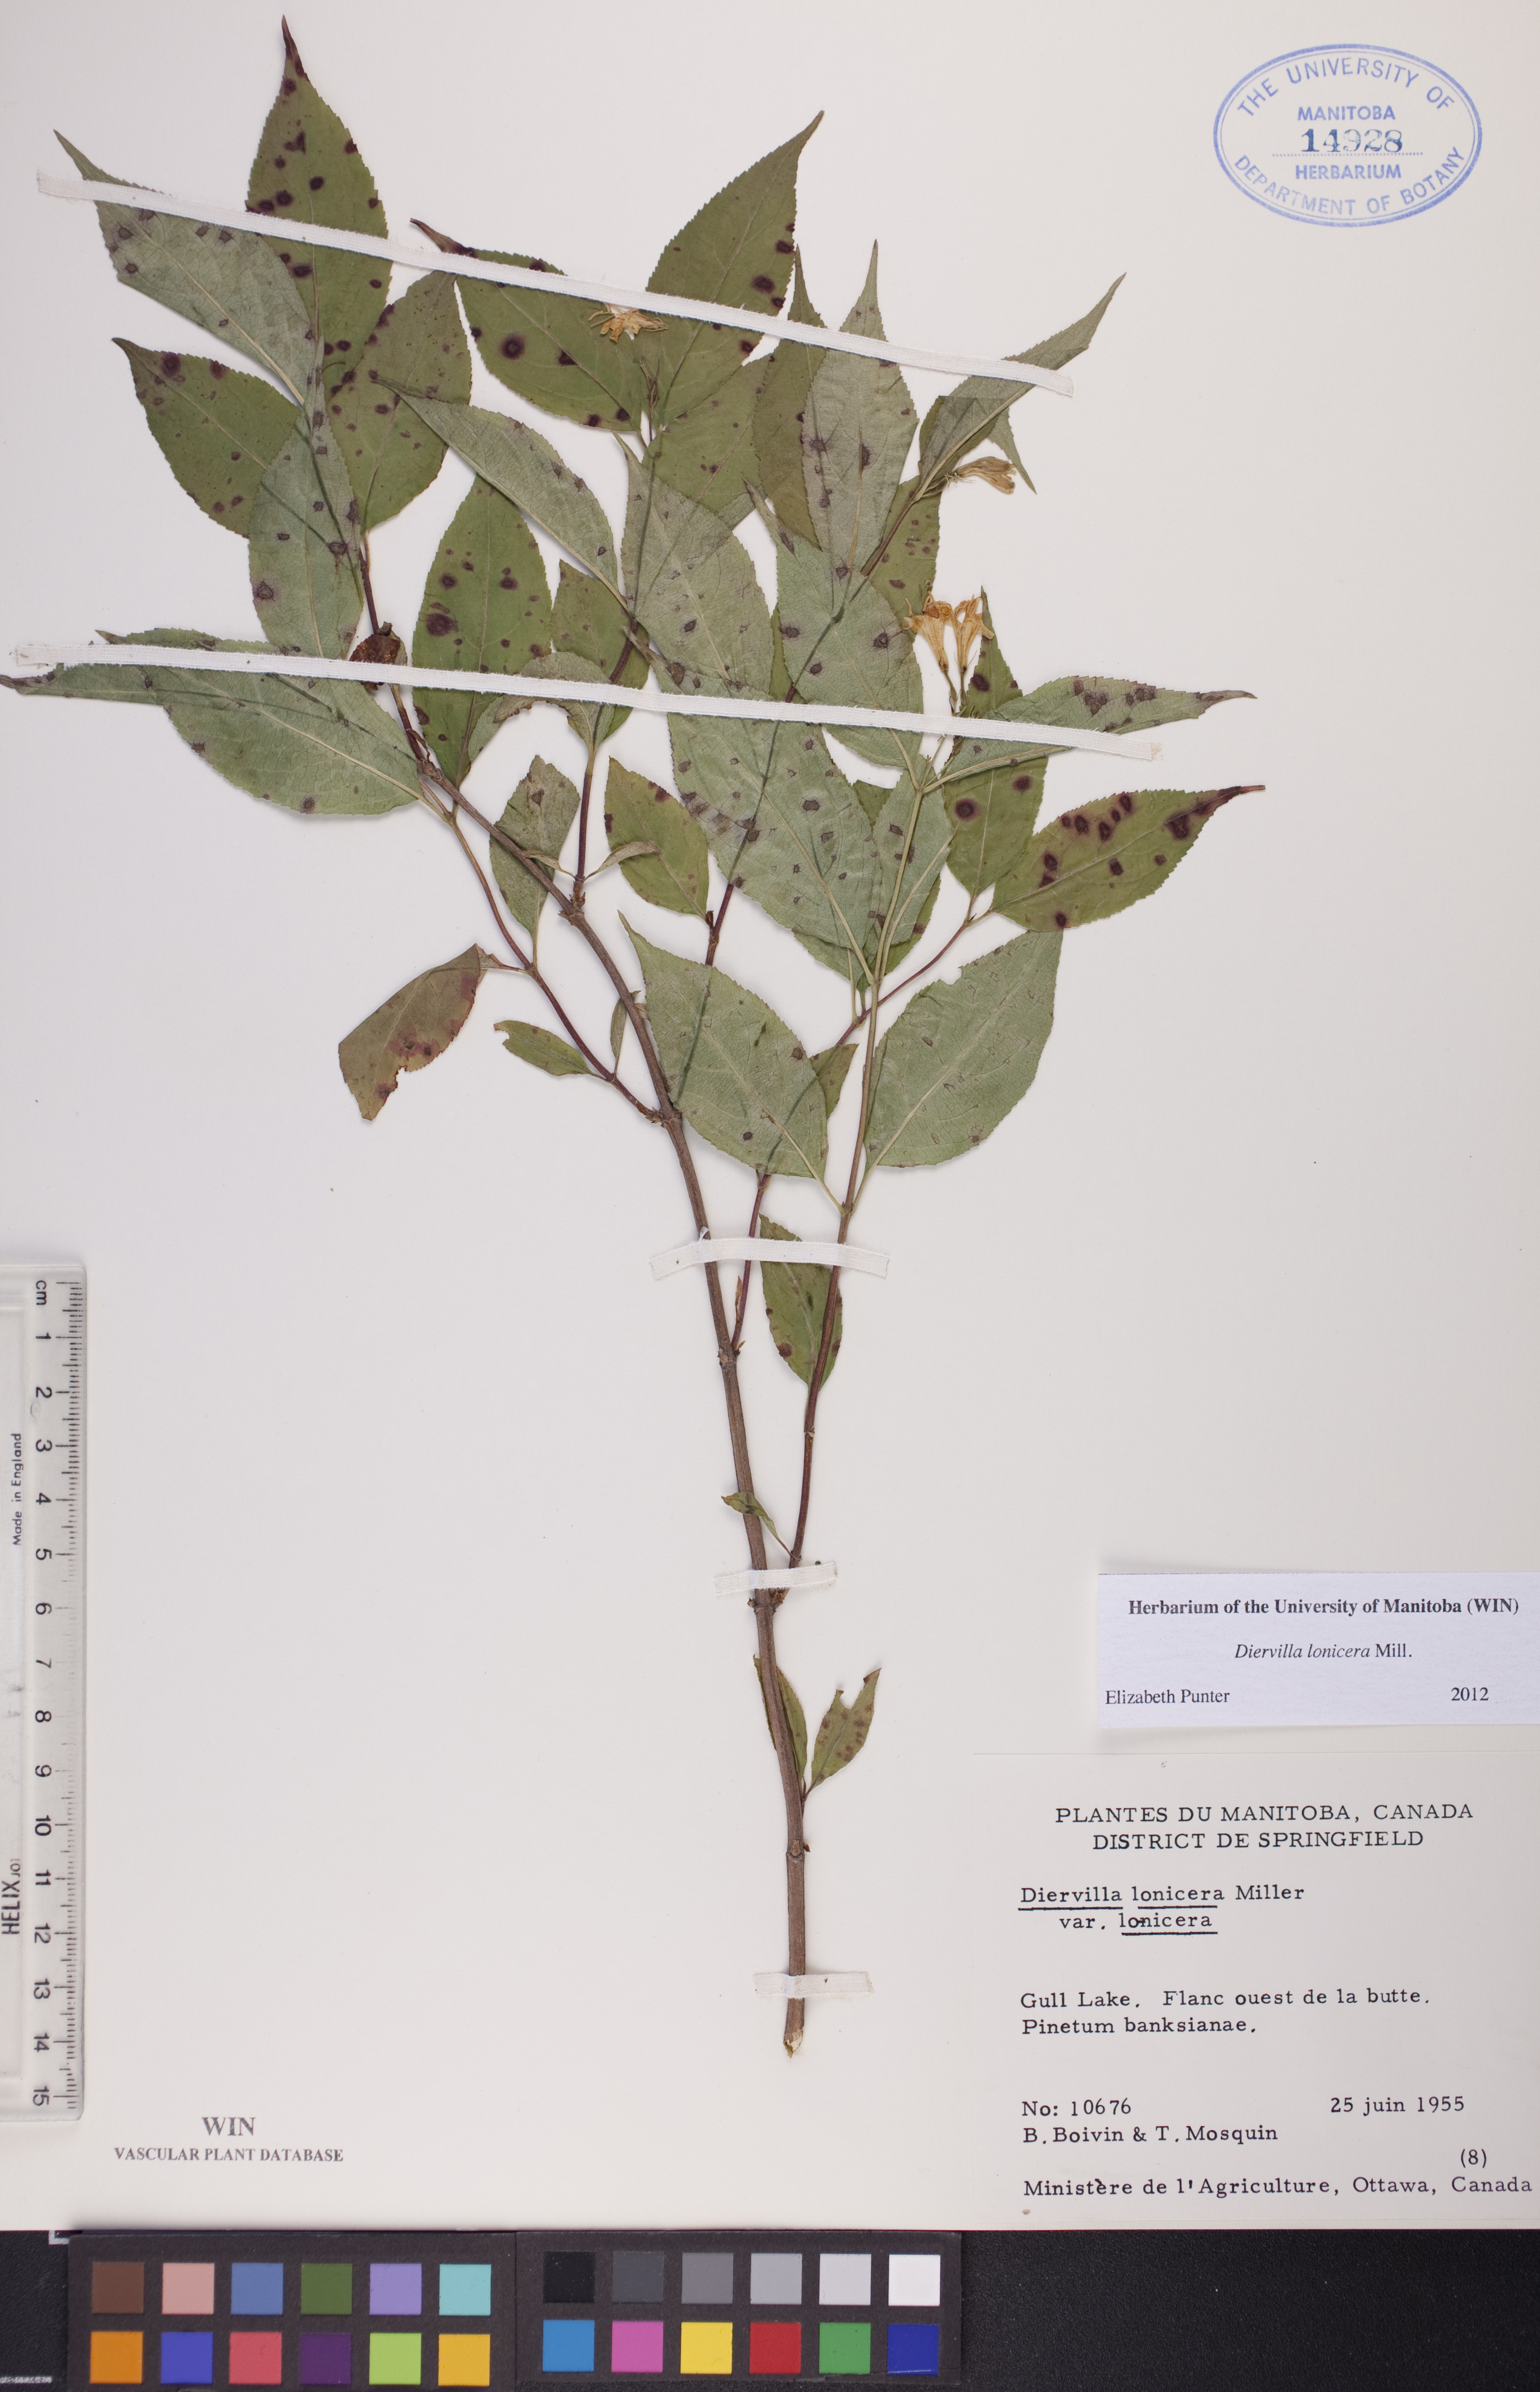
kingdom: Plantae
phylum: Tracheophyta
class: Magnoliopsida
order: Dipsacales
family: Caprifoliaceae
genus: Diervilla
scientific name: Diervilla lonicera
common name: Bush-honeysuckle
